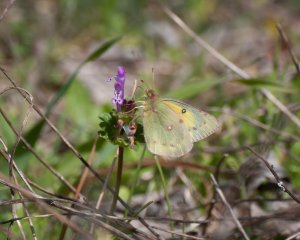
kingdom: Animalia
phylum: Arthropoda
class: Insecta
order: Lepidoptera
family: Pieridae
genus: Colias
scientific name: Colias eurytheme
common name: Orange Sulphur
